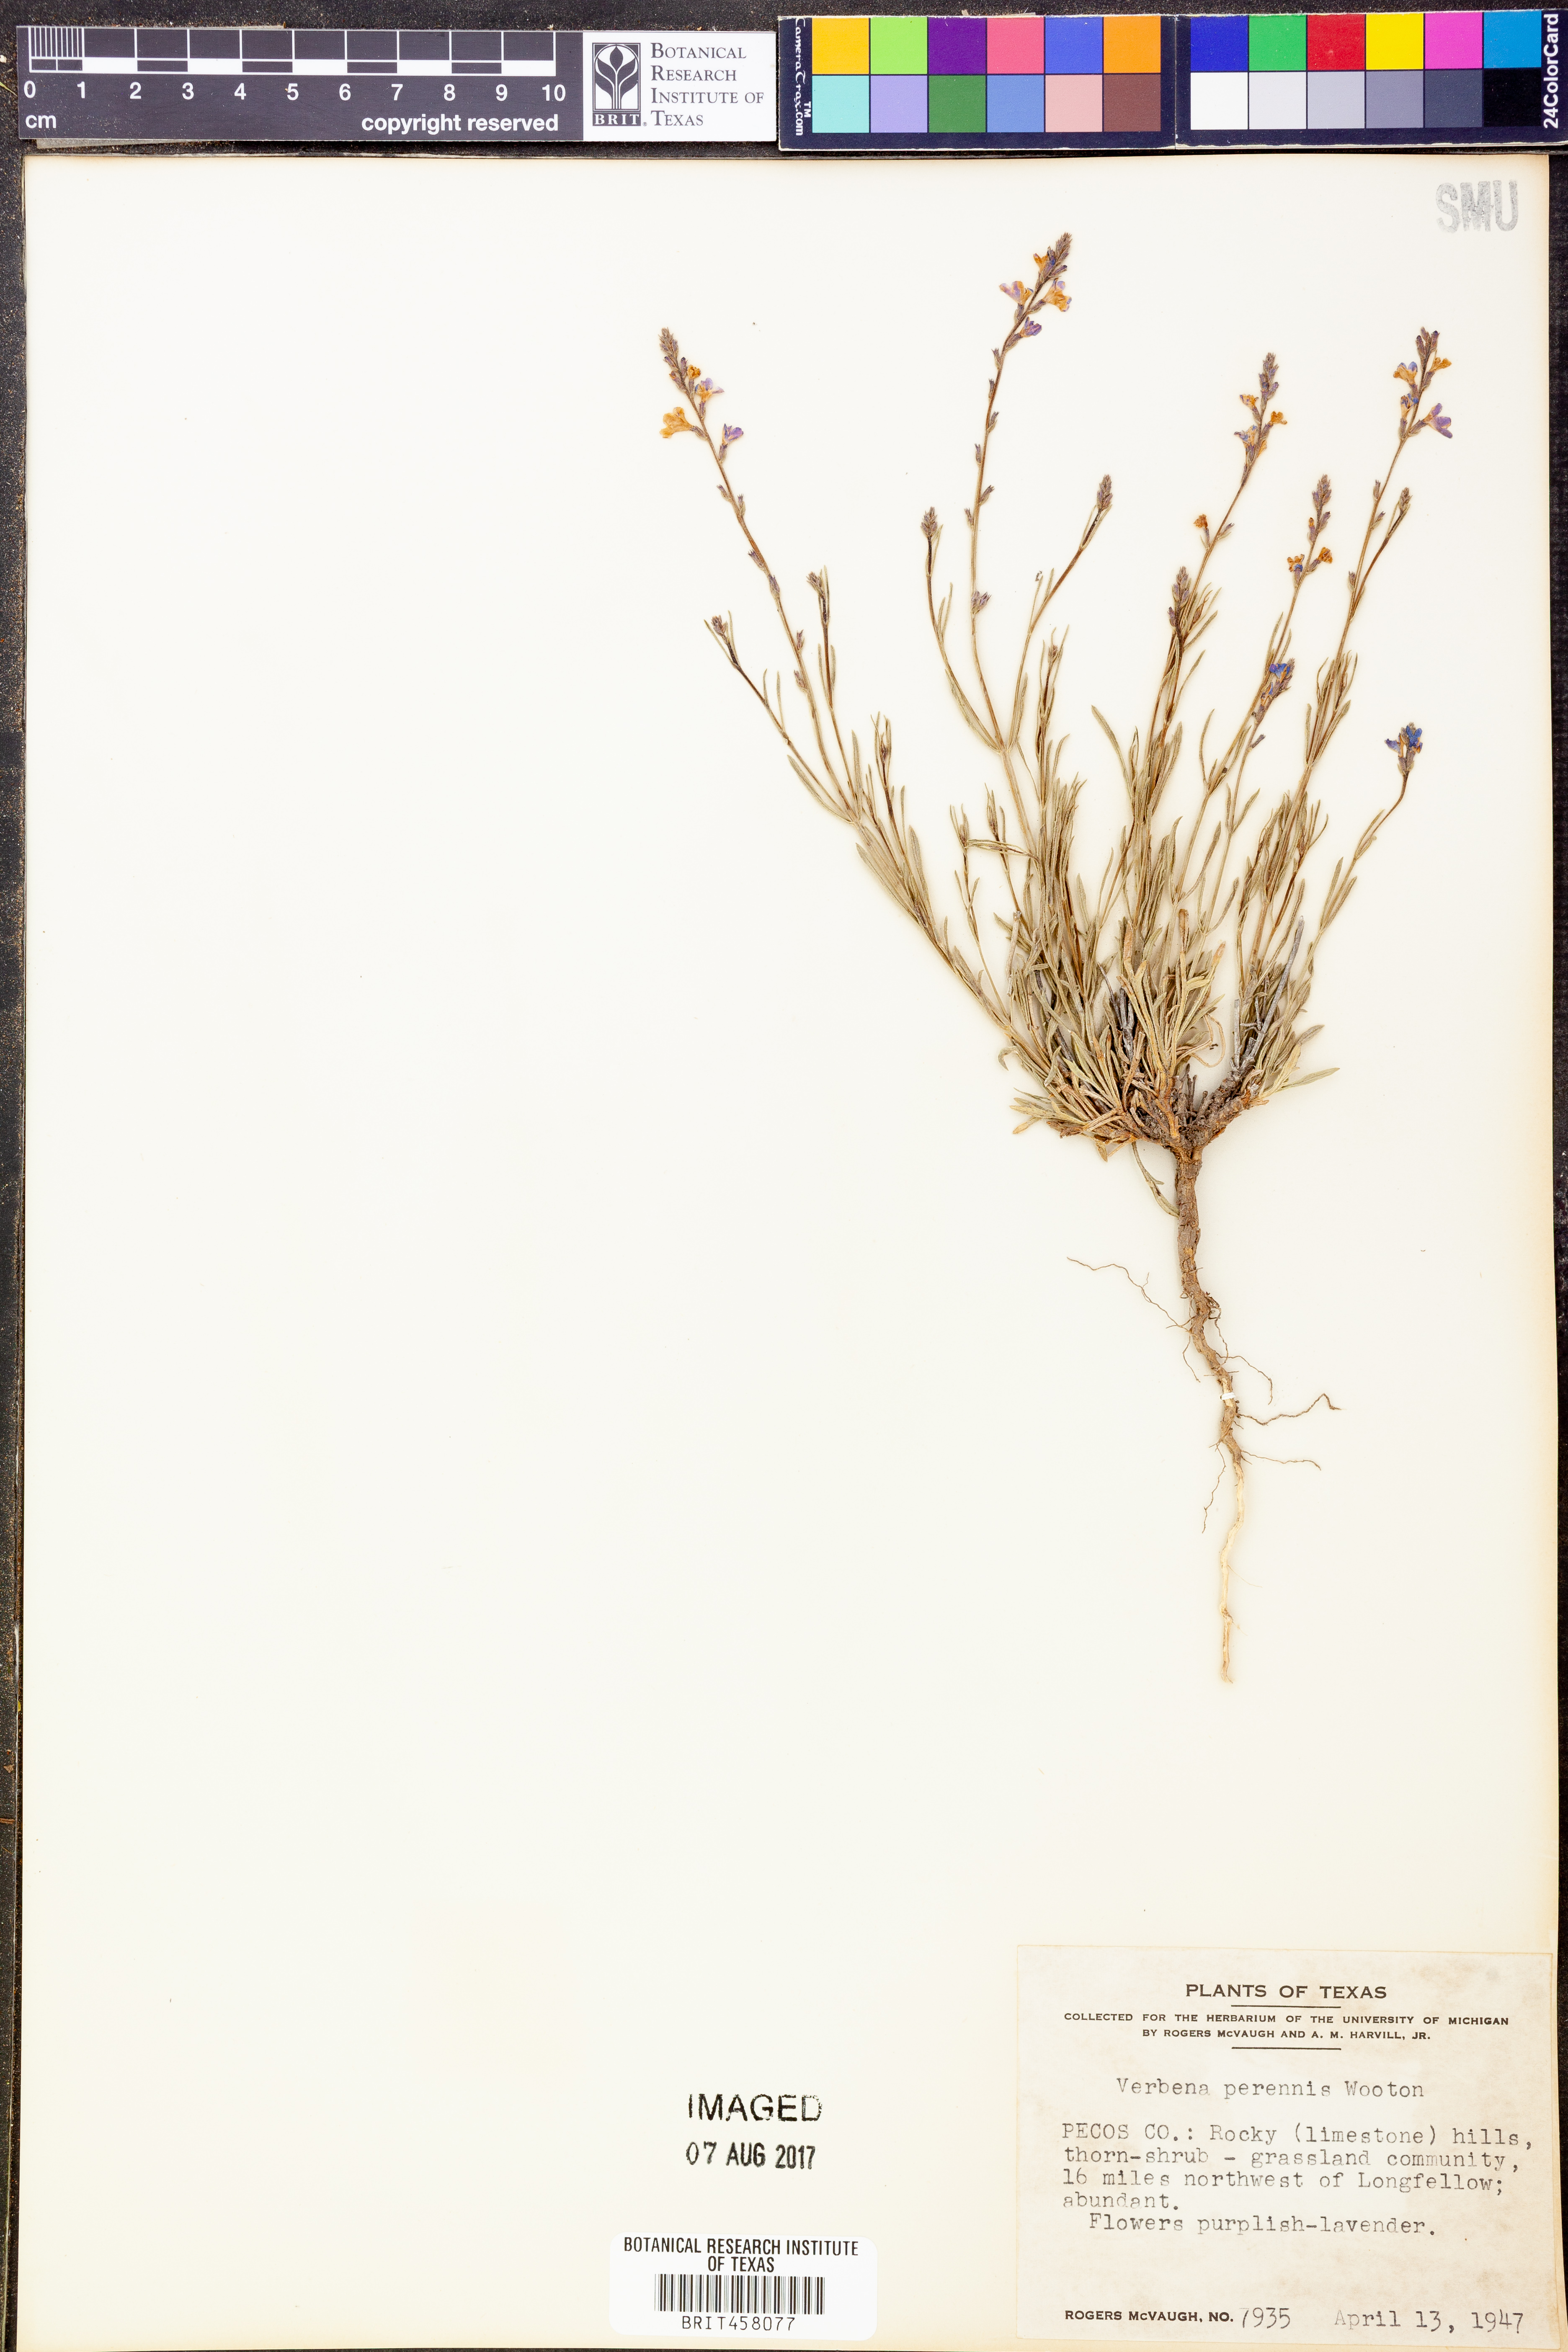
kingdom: Plantae
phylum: Tracheophyta
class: Magnoliopsida
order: Lamiales
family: Verbenaceae
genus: Verbena
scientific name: Verbena perennis
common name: Pin-leaf vervain
